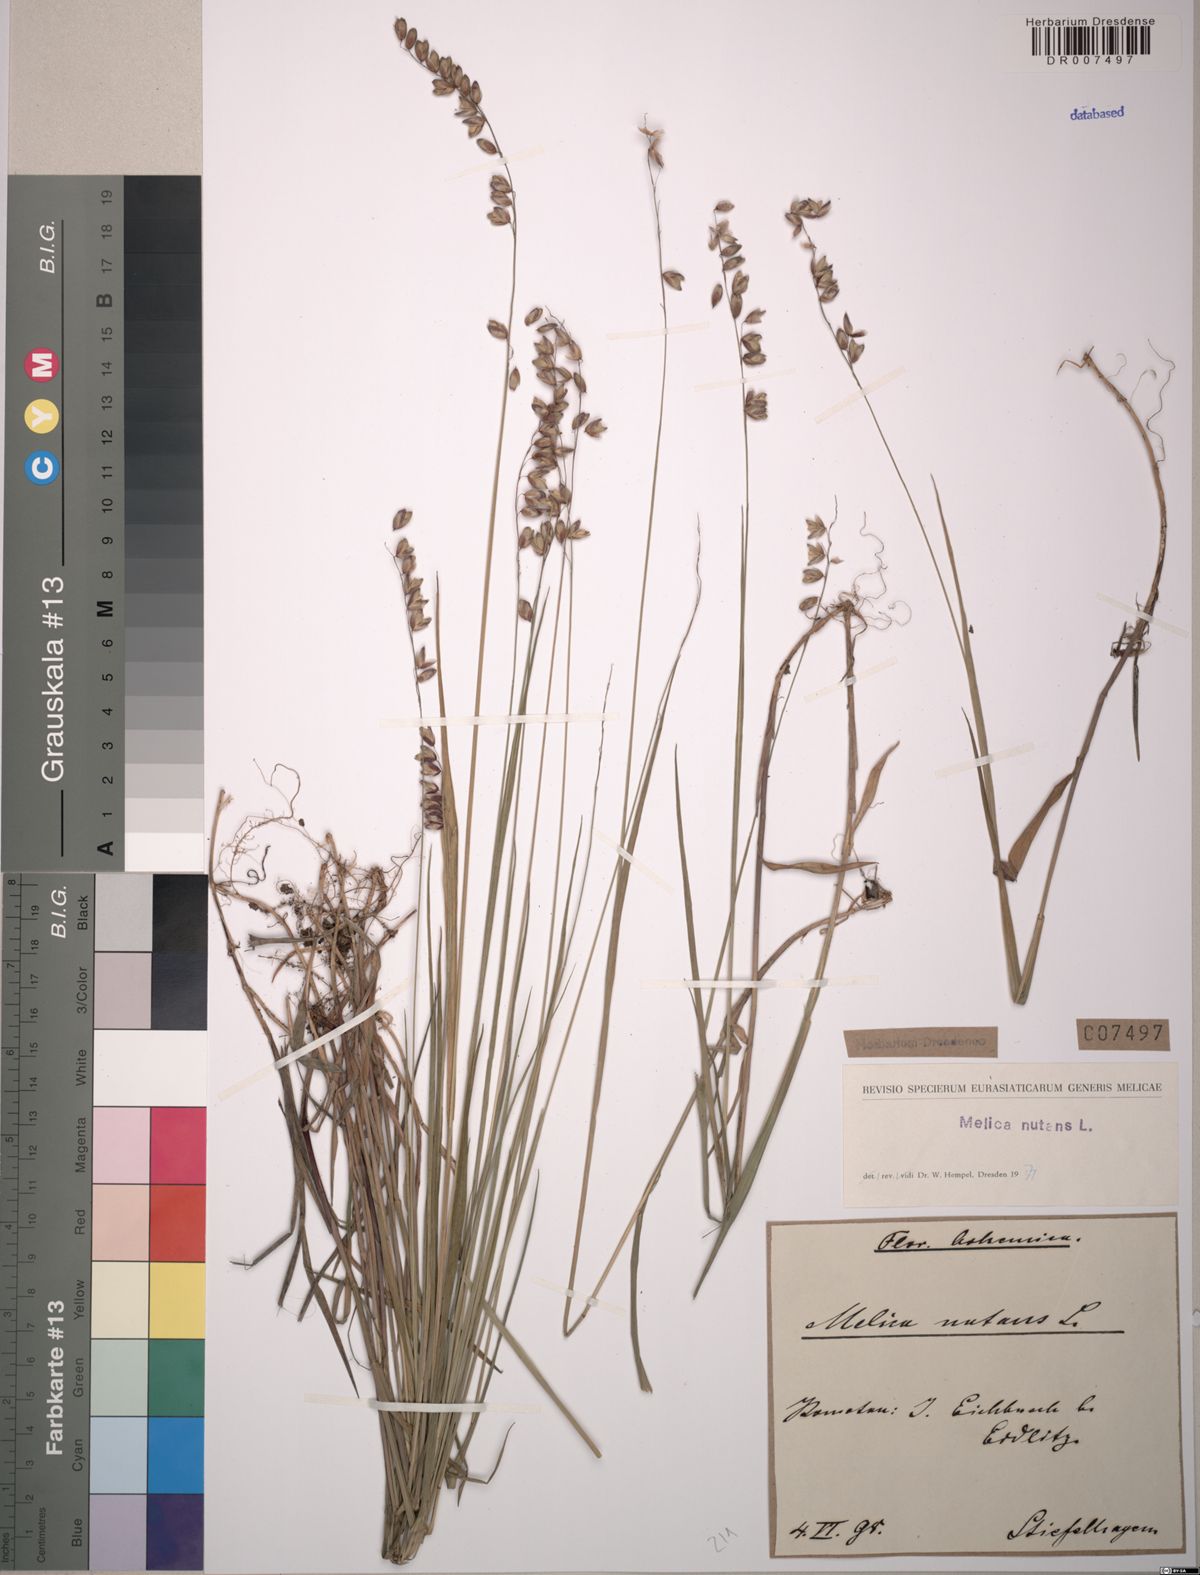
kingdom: Plantae
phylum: Tracheophyta
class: Liliopsida
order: Poales
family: Poaceae
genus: Melica
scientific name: Melica nutans
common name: Mountain melick
